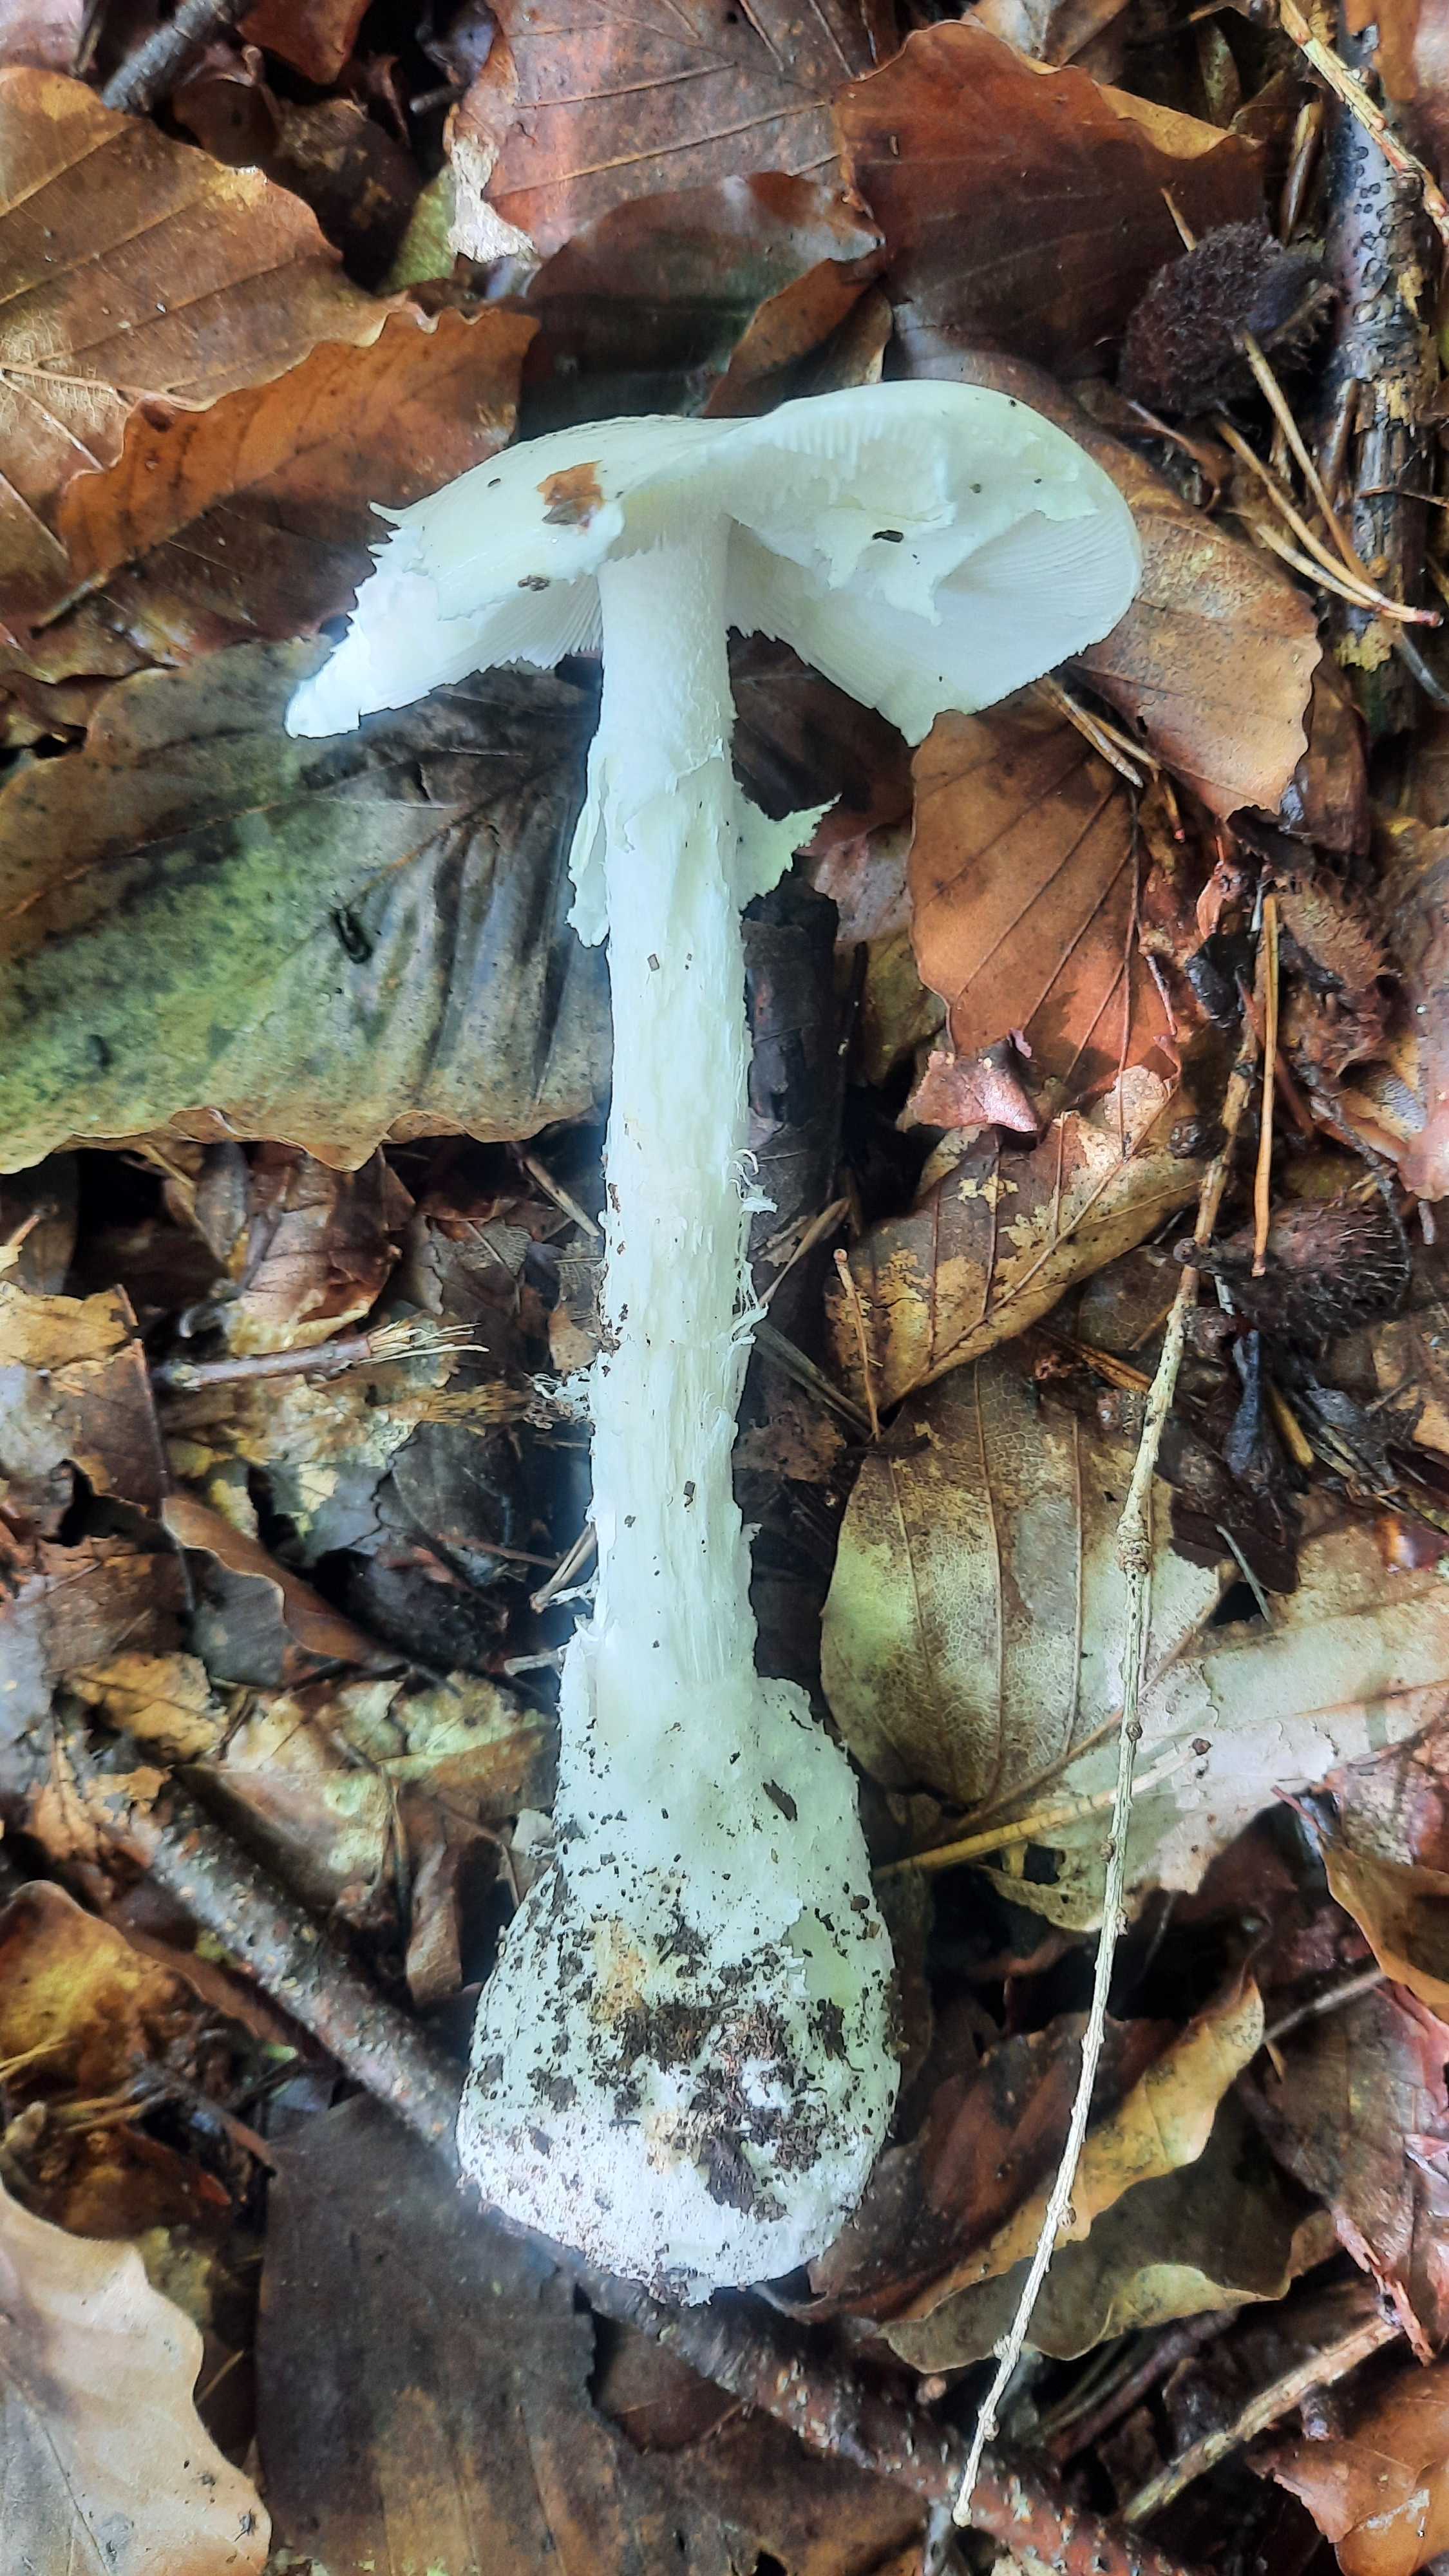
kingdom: Fungi
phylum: Basidiomycota
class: Agaricomycetes
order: Agaricales
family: Amanitaceae
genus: Amanita
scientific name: Amanita virosa
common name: snehvid fluesvamp
